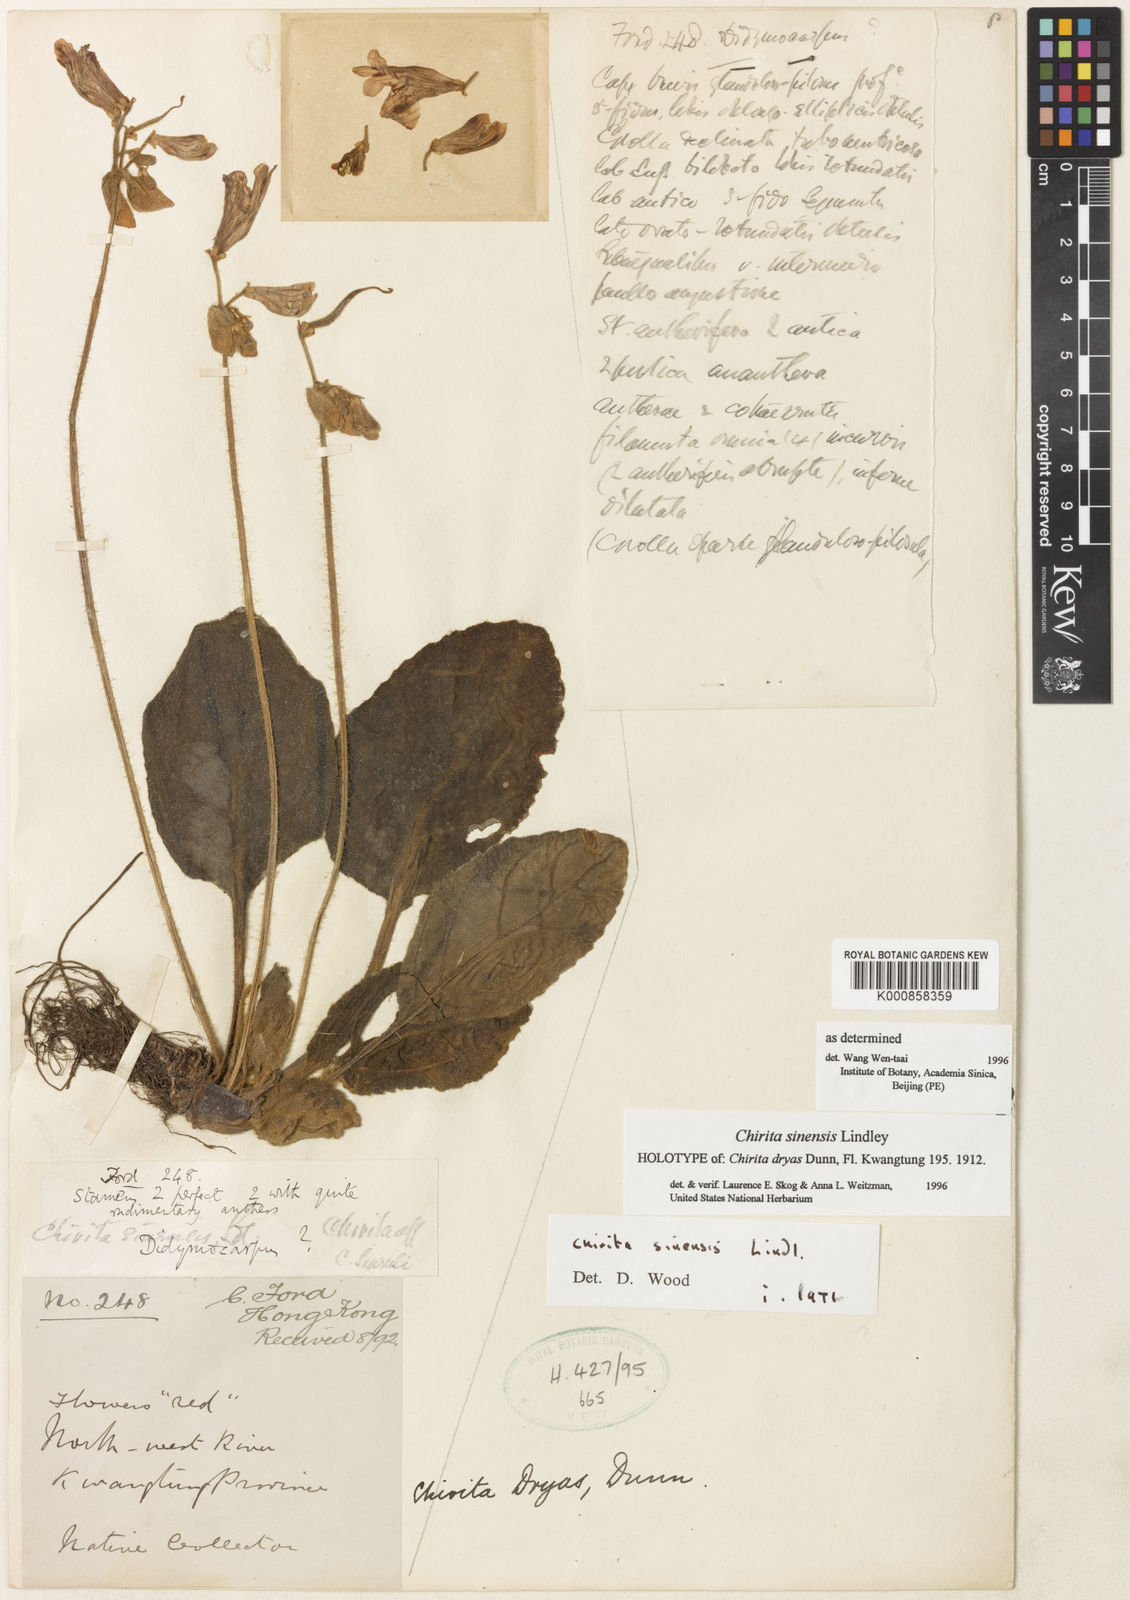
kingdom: Plantae
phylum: Tracheophyta
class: Magnoliopsida
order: Lamiales
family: Gesneriaceae
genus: Primulina
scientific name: Primulina dryas
